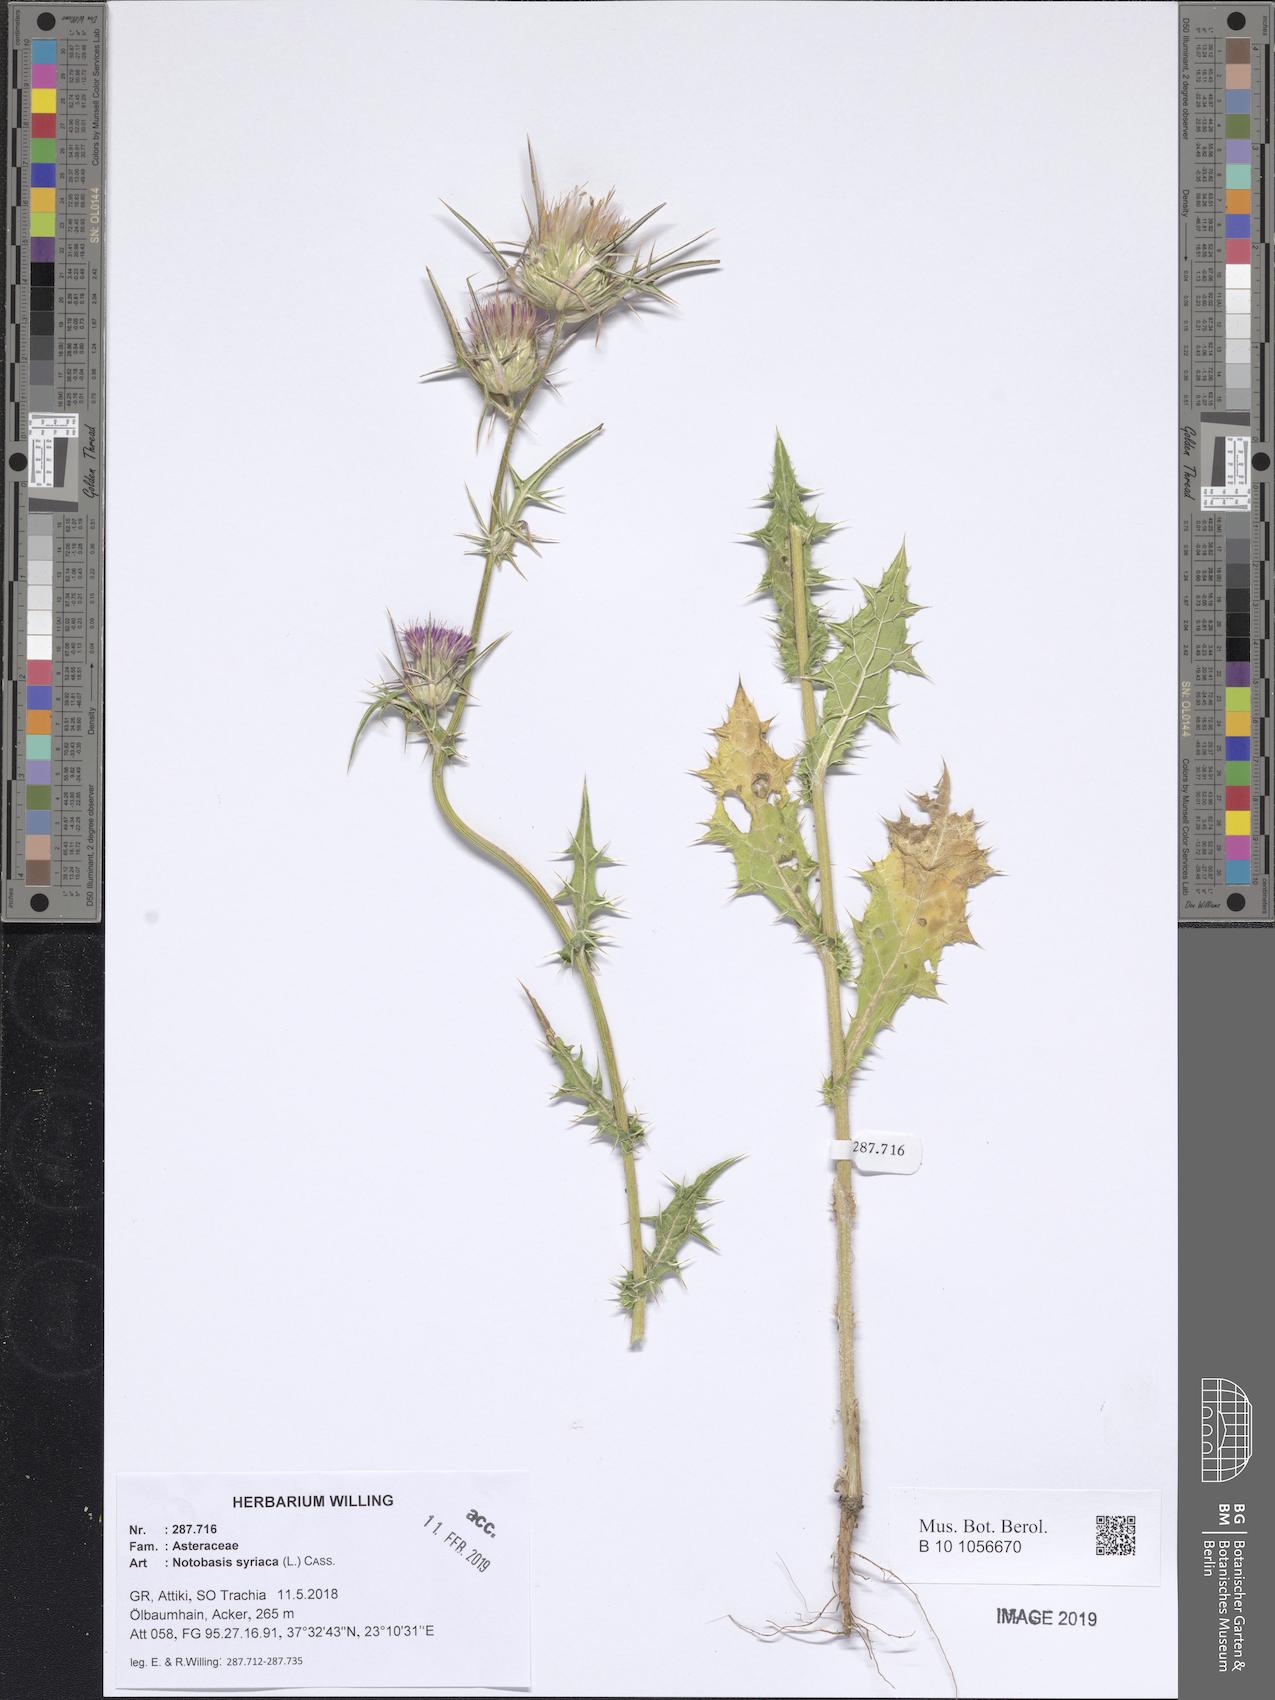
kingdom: Plantae
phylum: Tracheophyta
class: Magnoliopsida
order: Asterales
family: Asteraceae
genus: Notobasis
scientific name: Notobasis syriaca
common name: Syrian thistle
